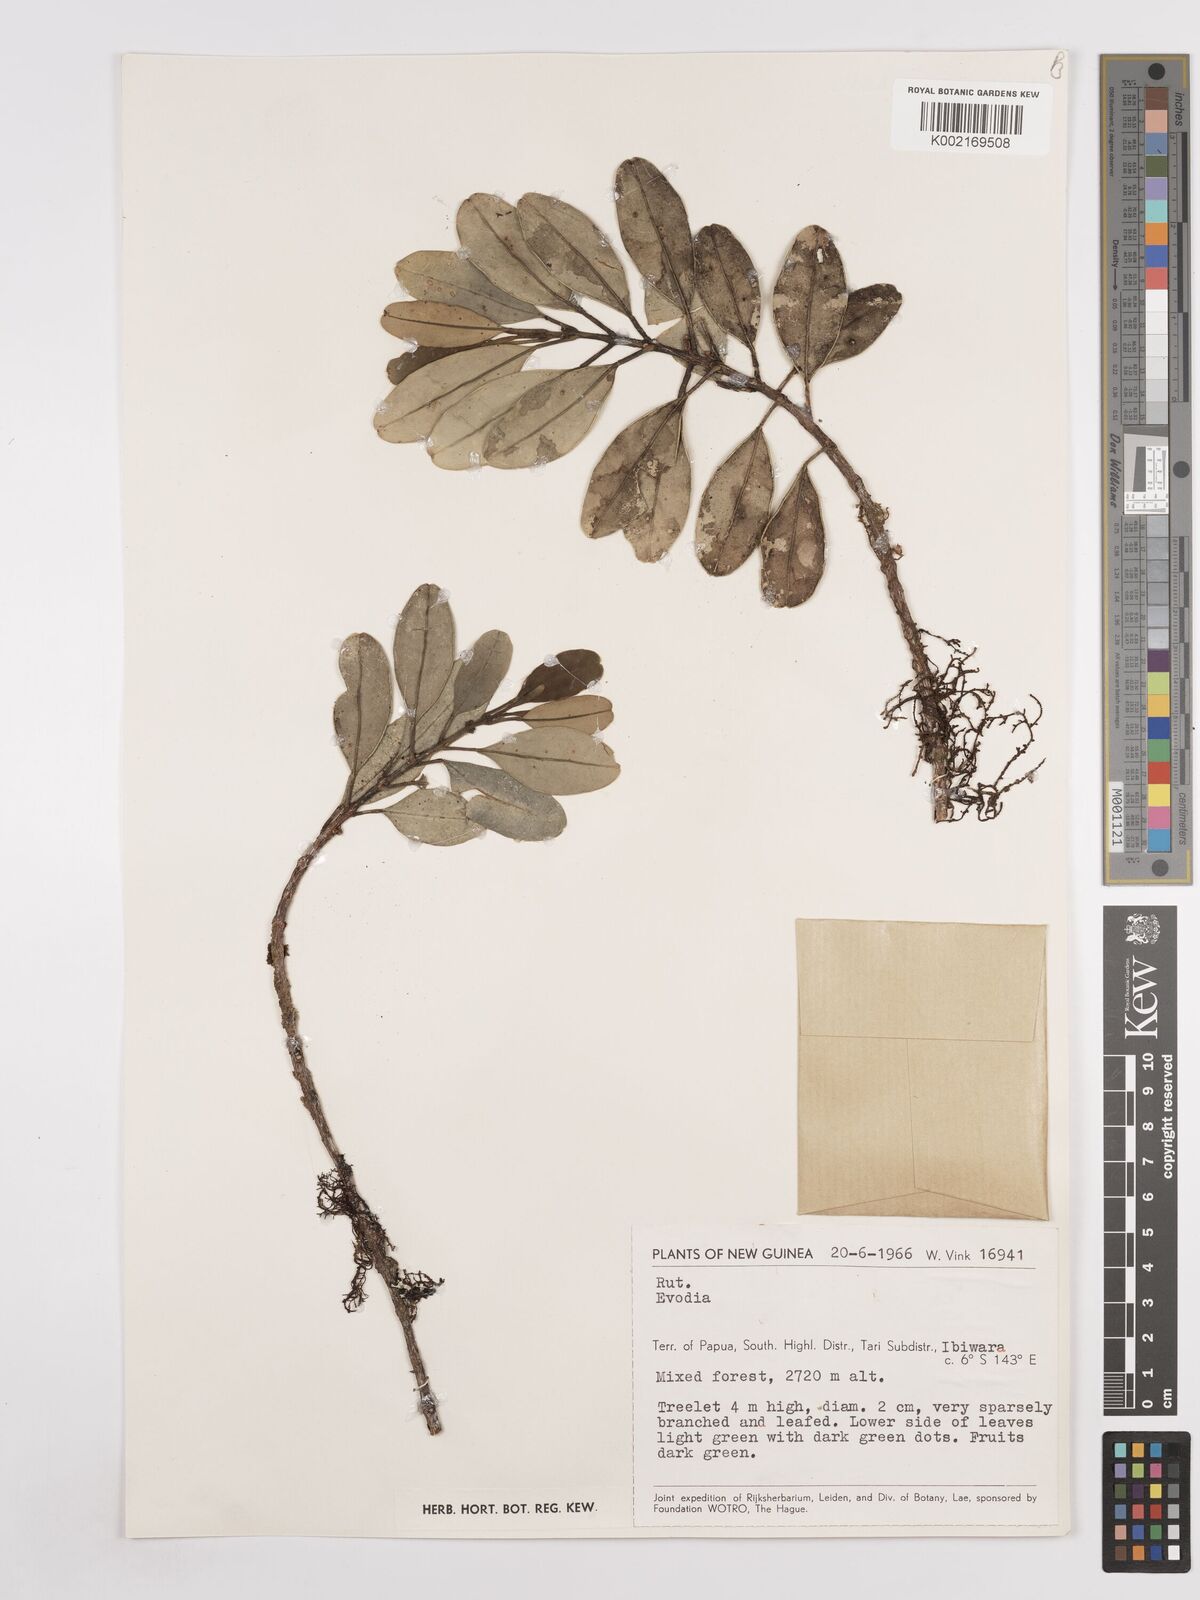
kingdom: Plantae
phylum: Tracheophyta
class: Magnoliopsida
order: Sapindales
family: Rutaceae
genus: Euodia
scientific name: Euodia
